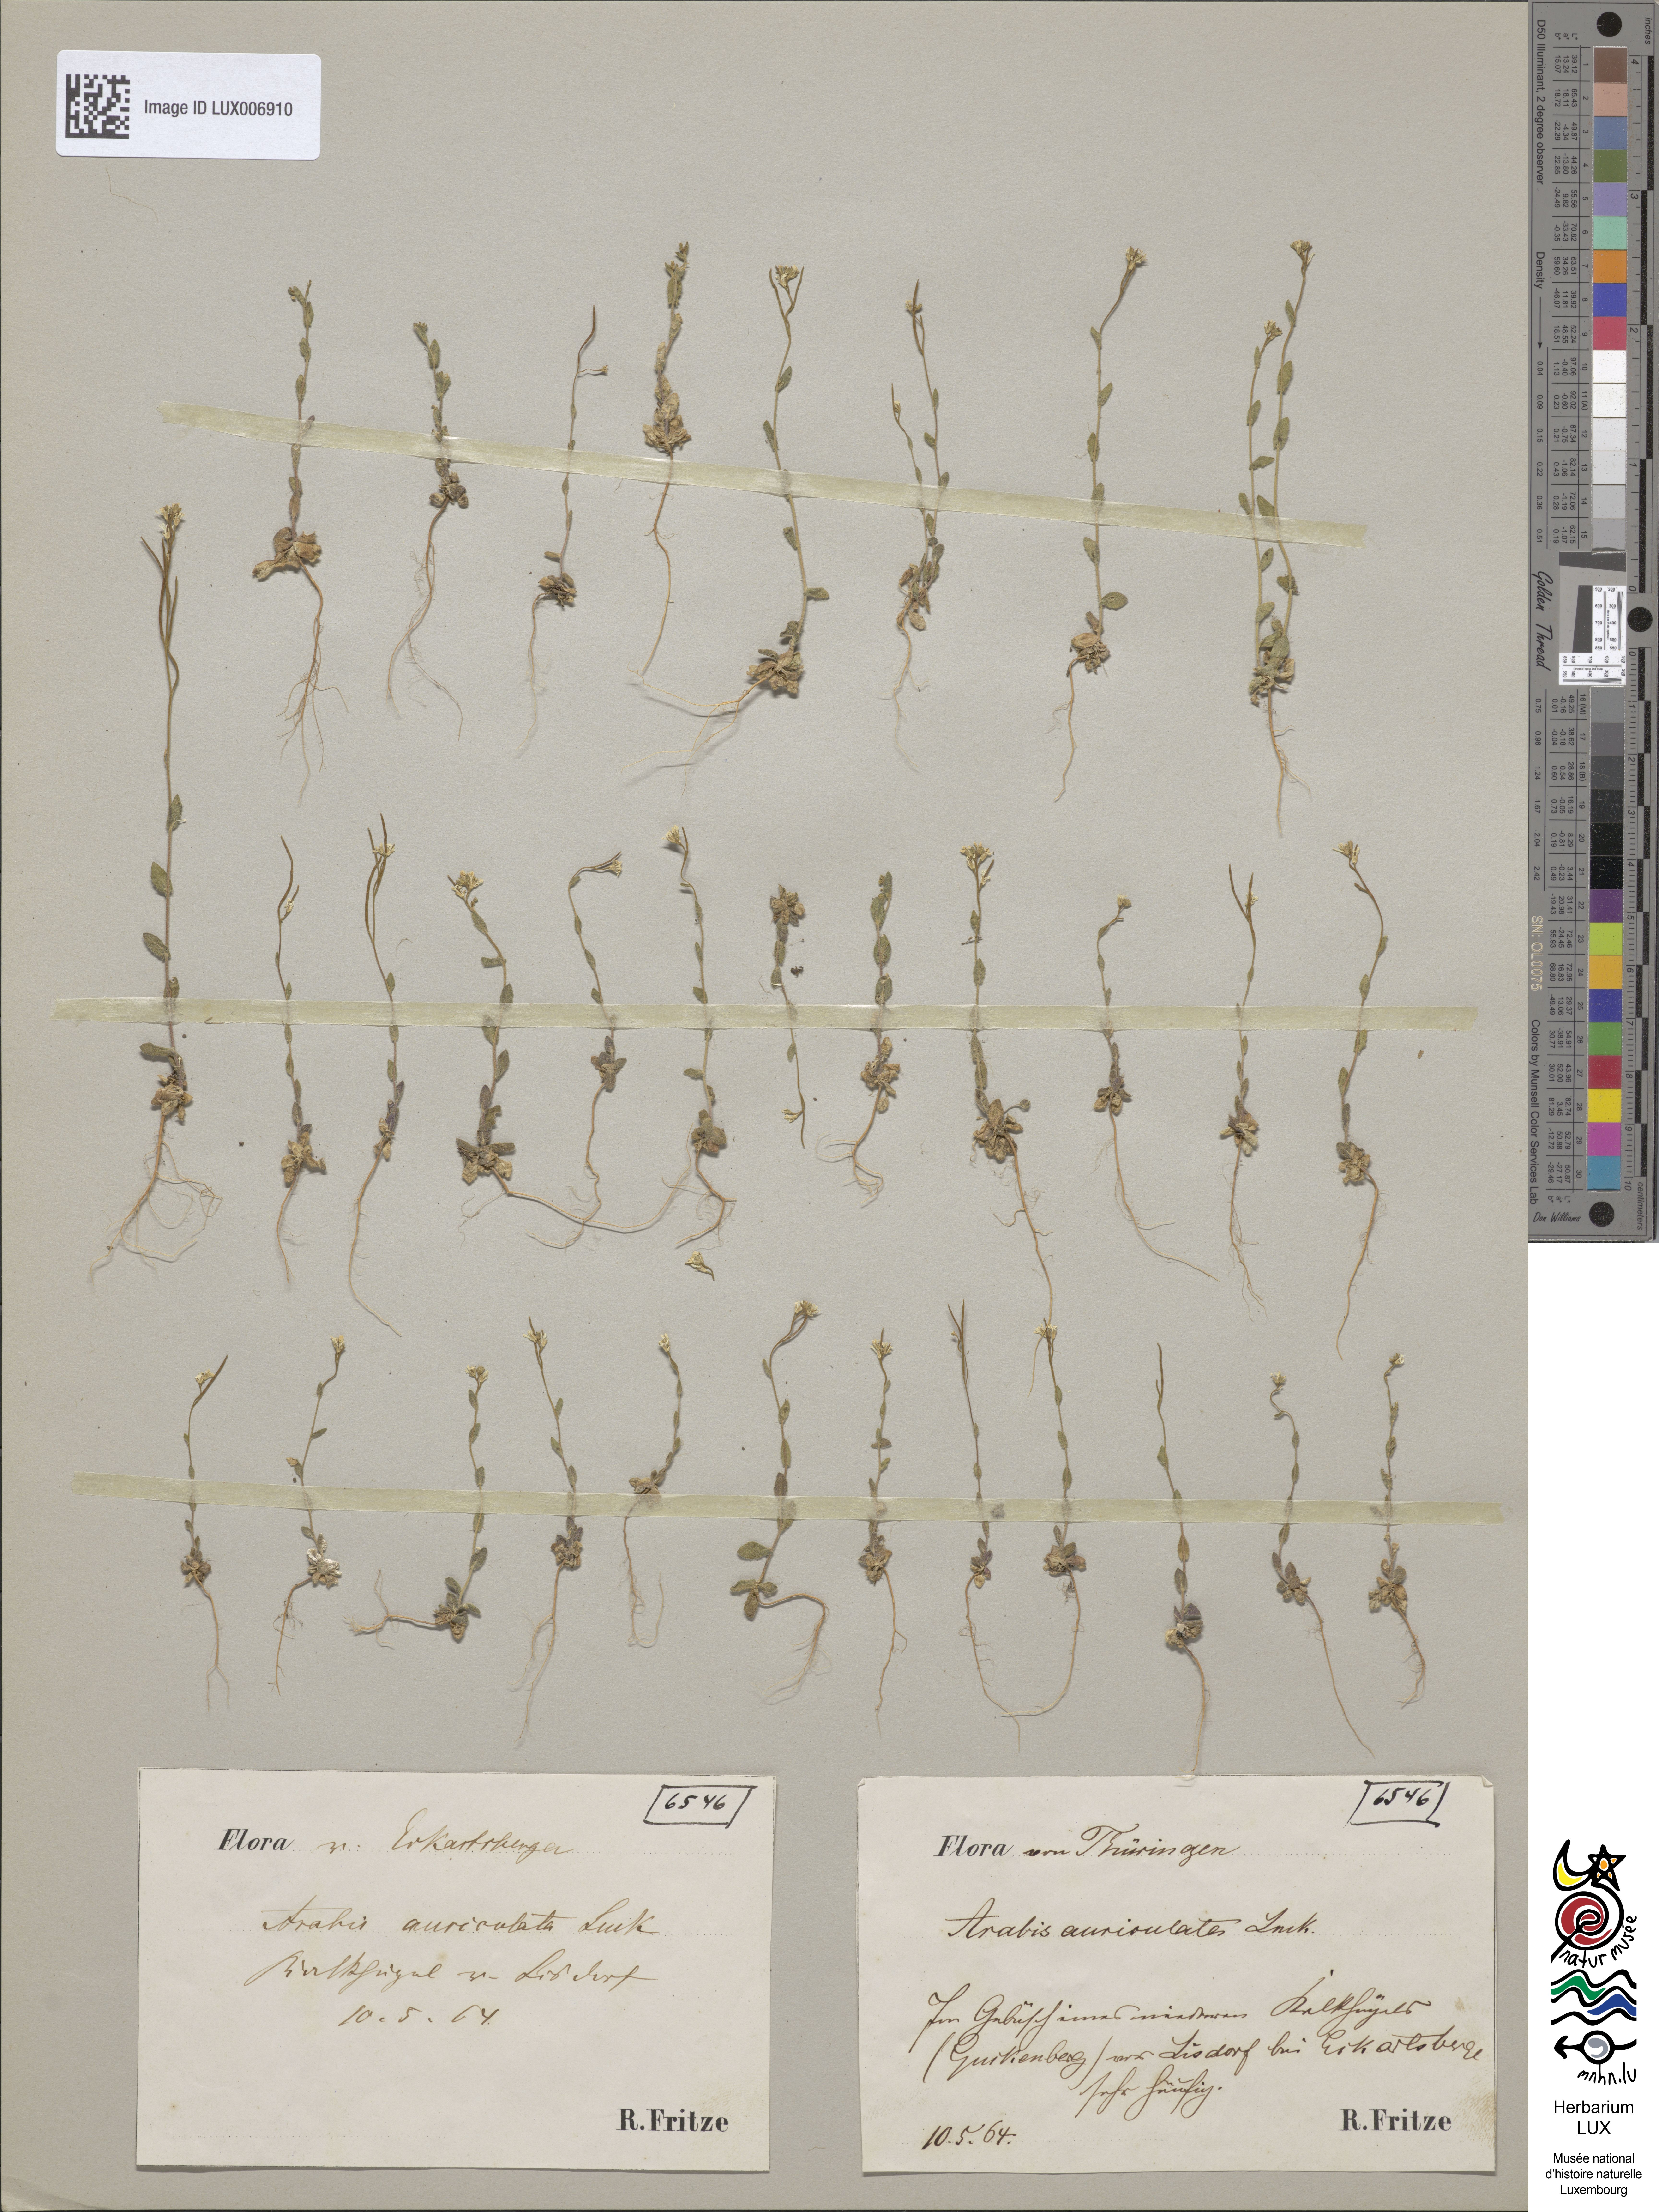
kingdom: Plantae
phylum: Tracheophyta
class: Magnoliopsida
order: Brassicales
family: Brassicaceae
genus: Arabis
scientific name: Arabis auriculata
